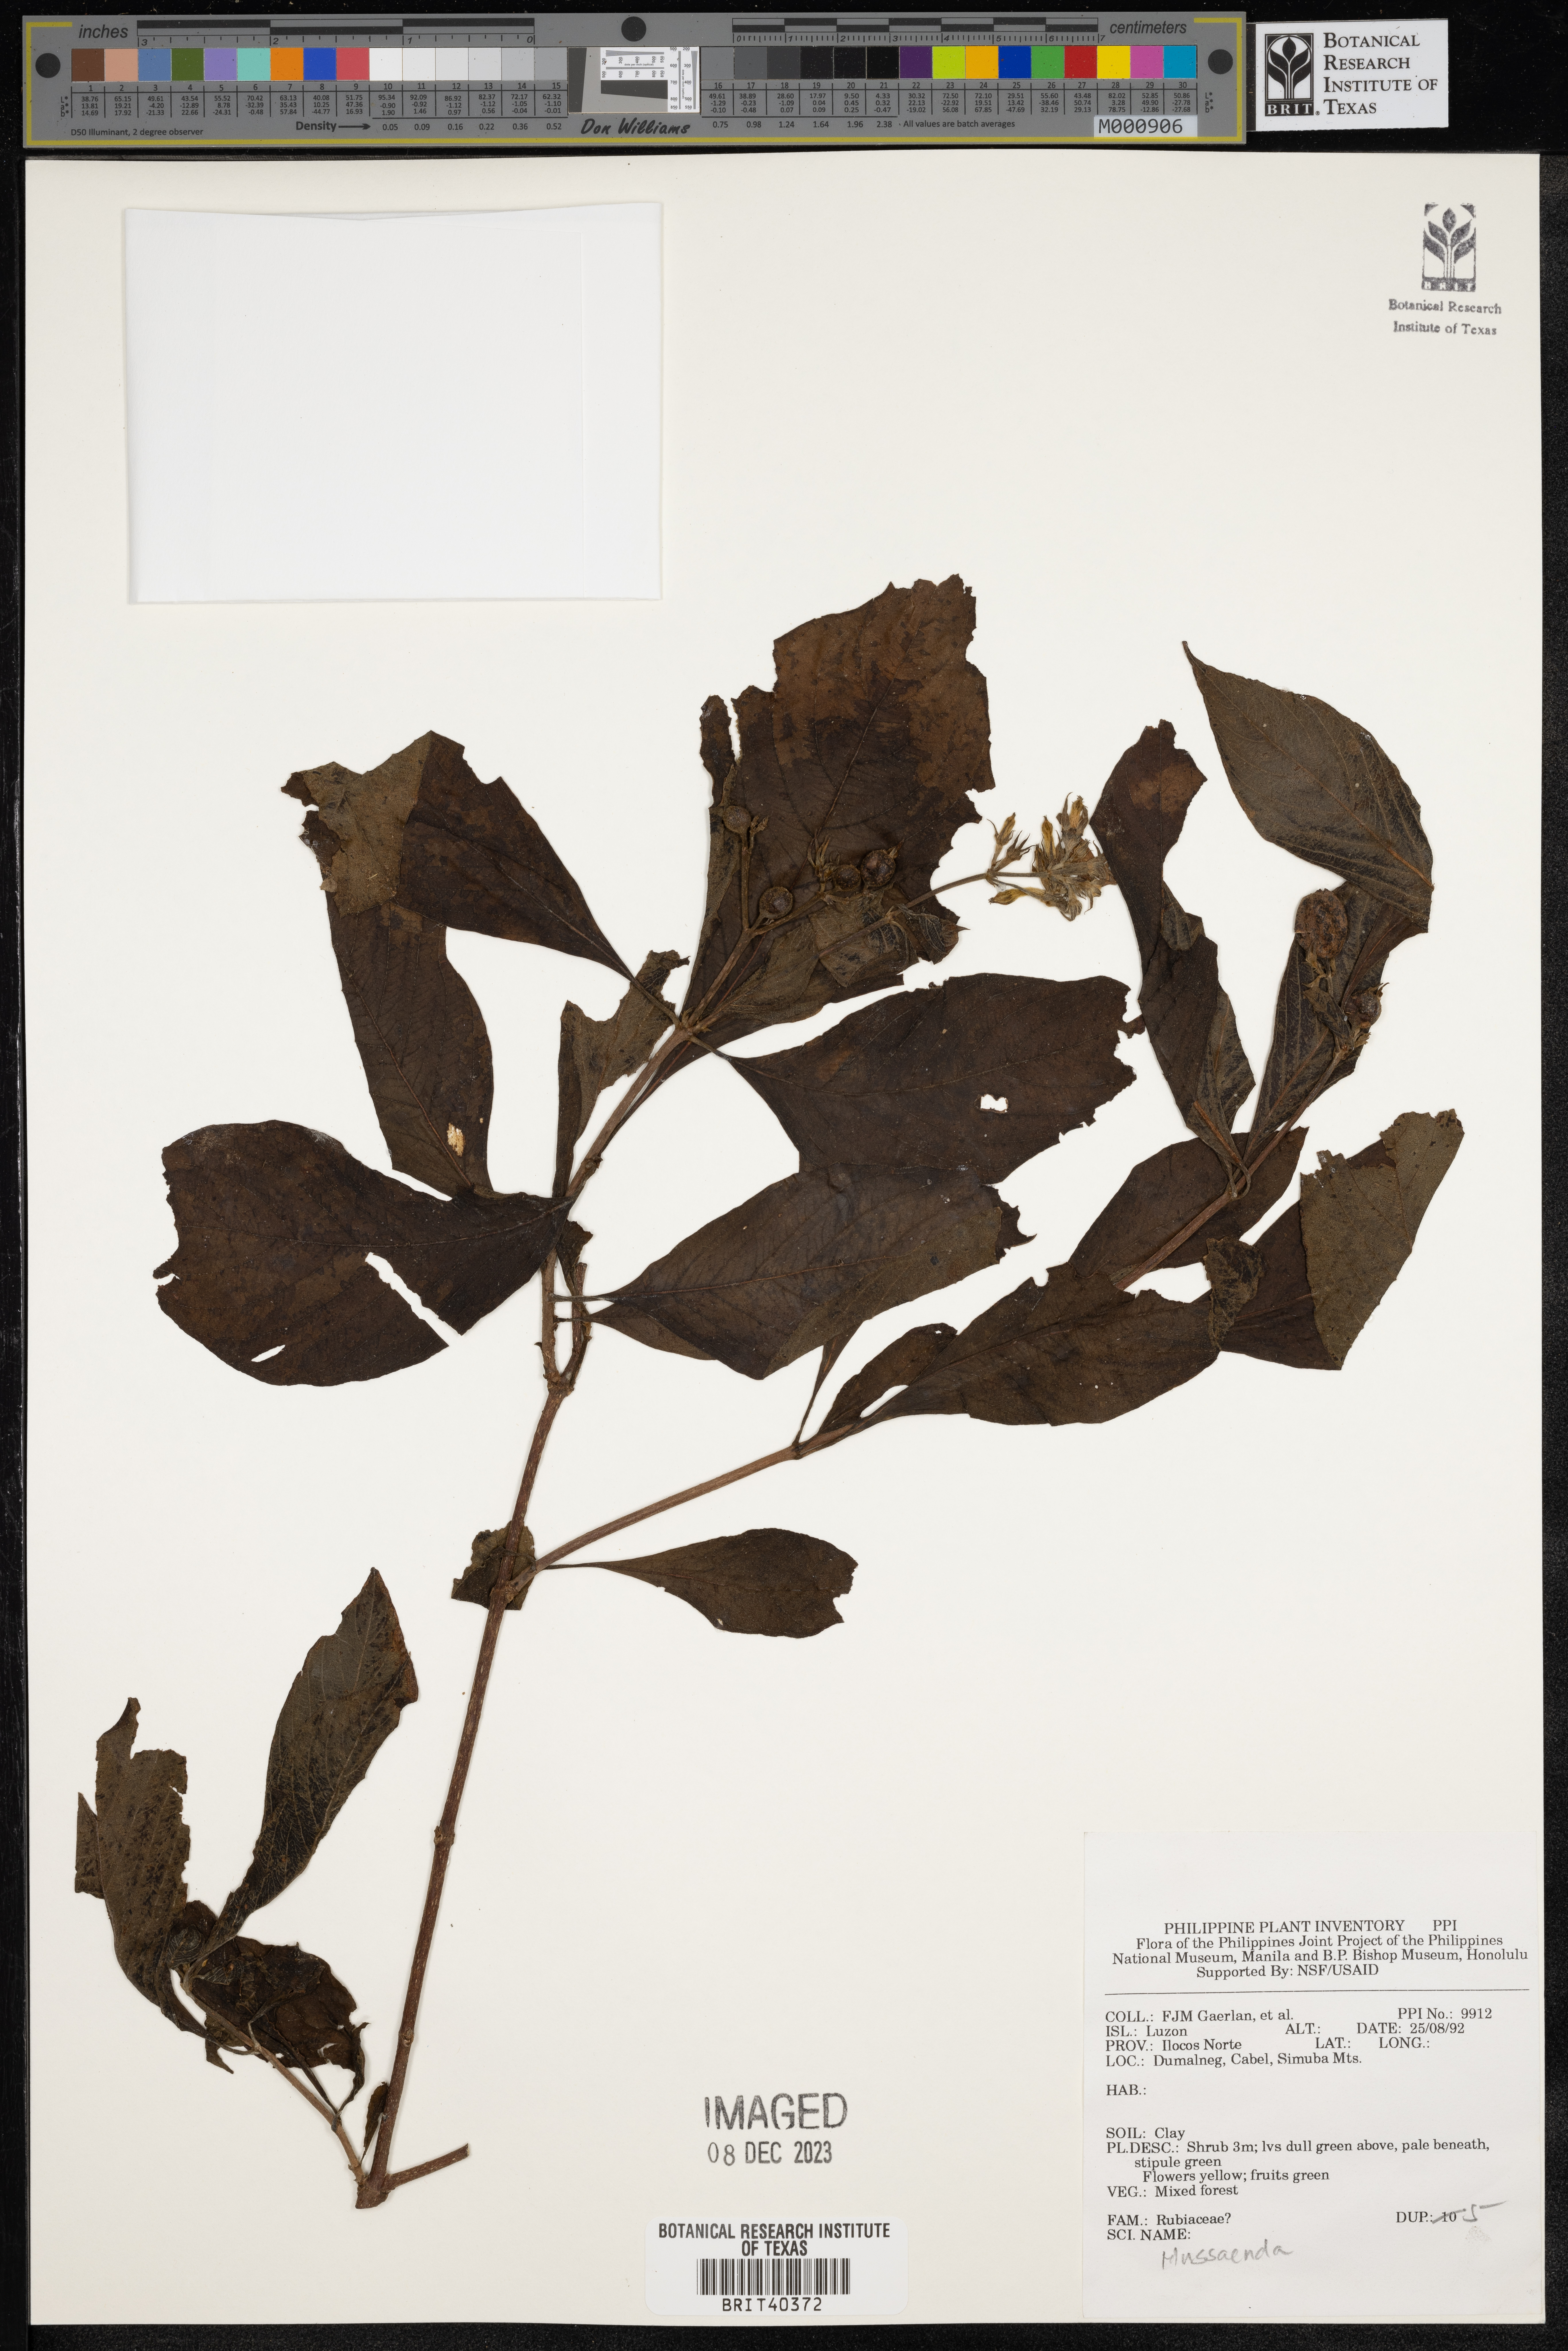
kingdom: Plantae
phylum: Tracheophyta
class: Magnoliopsida
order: Gentianales
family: Rubiaceae
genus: Mussaenda
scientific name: Mussaenda
